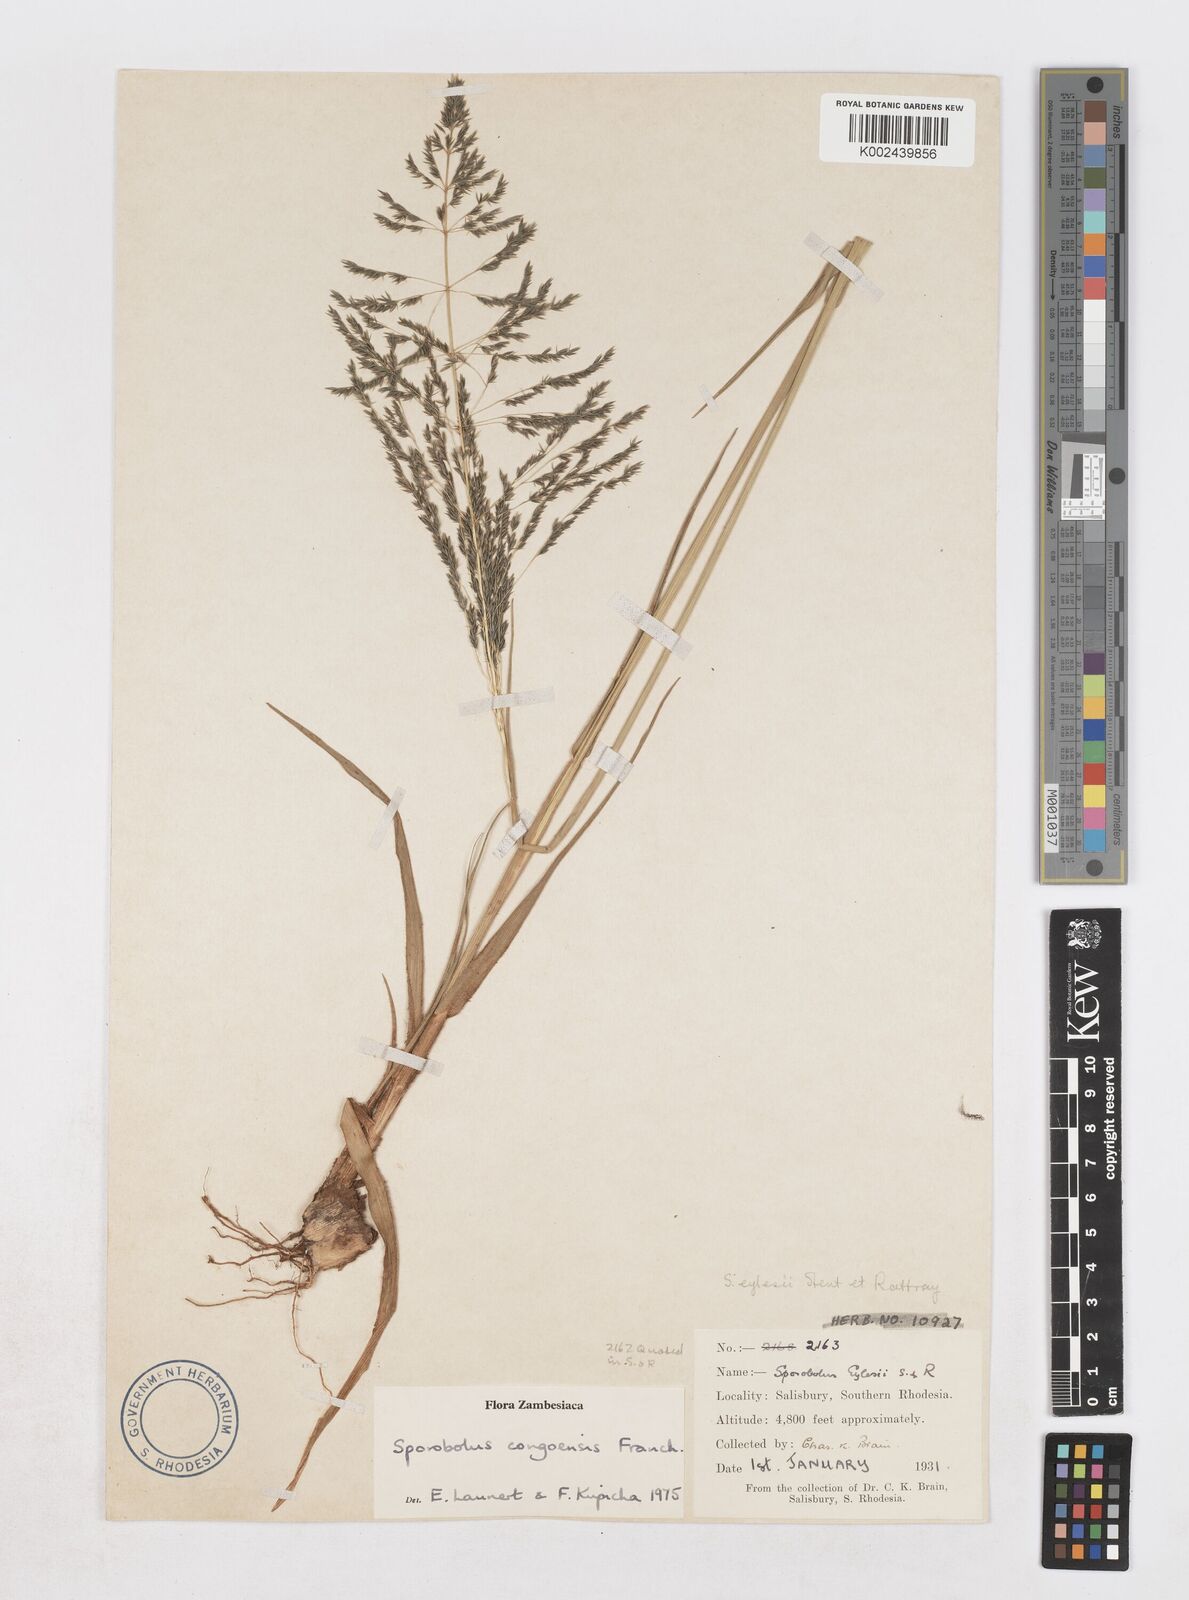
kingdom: Plantae
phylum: Tracheophyta
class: Liliopsida
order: Poales
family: Poaceae
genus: Sporobolus
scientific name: Sporobolus congoensis
